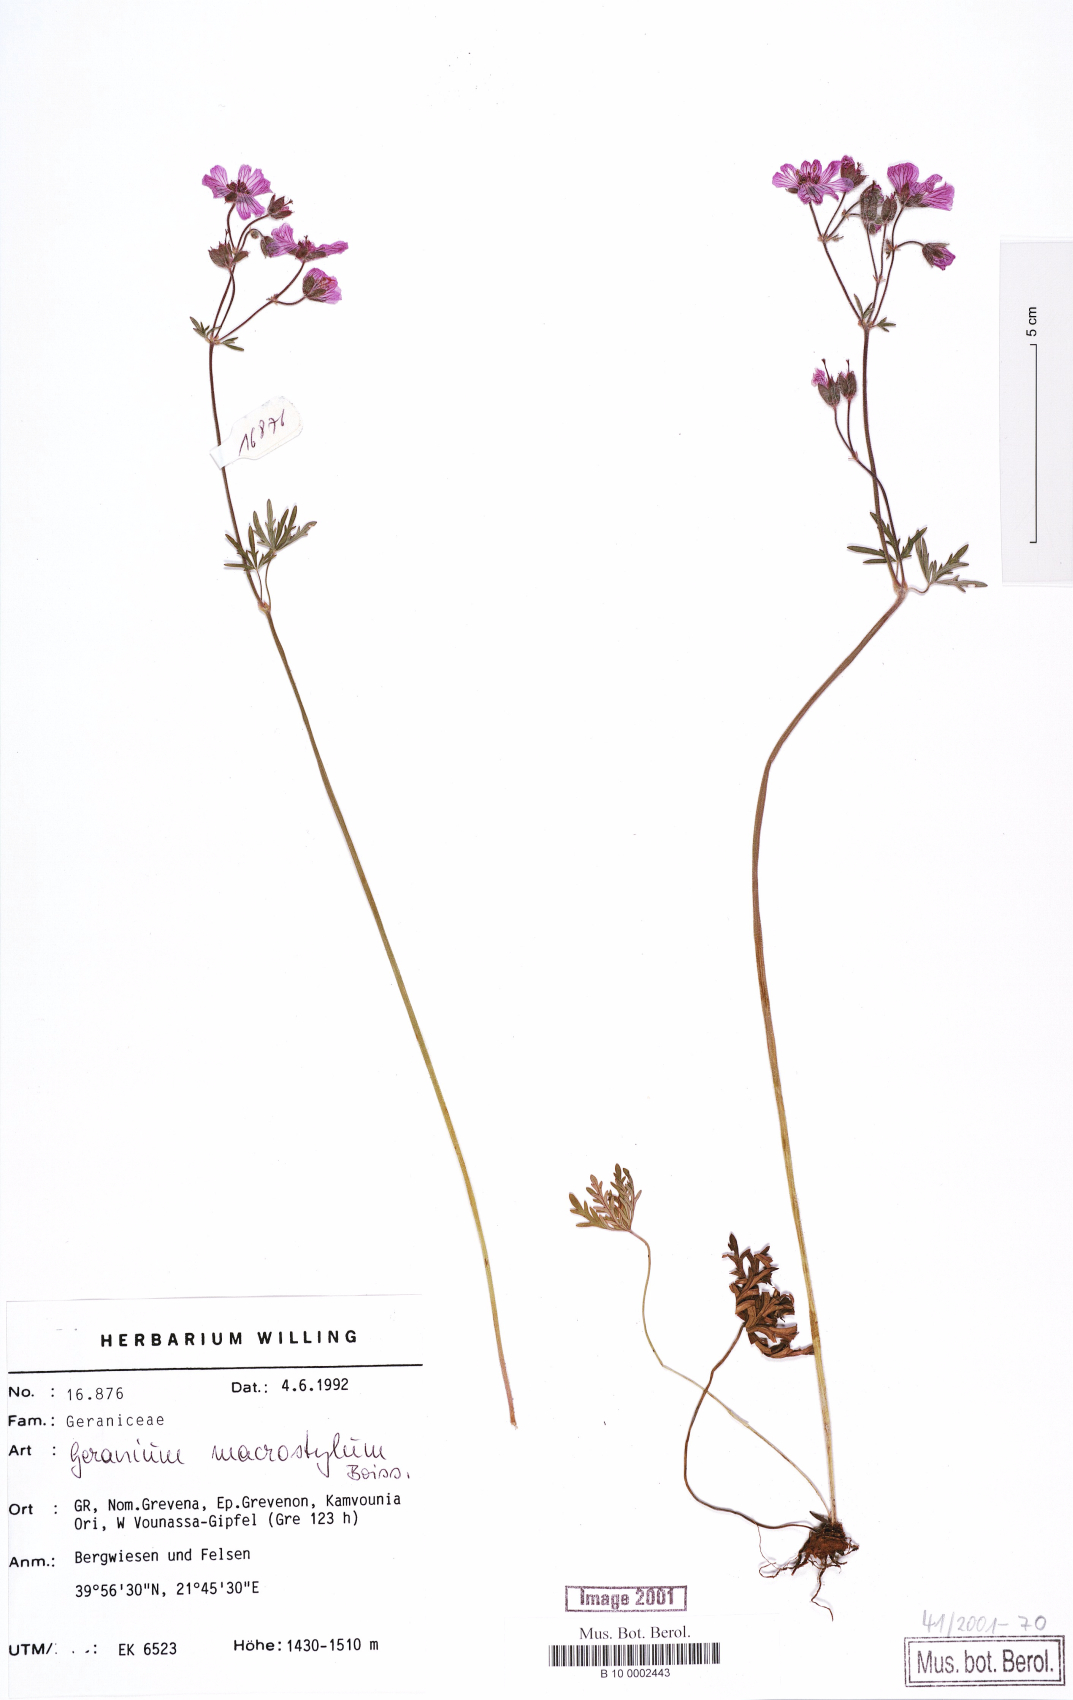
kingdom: Plantae
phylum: Tracheophyta
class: Magnoliopsida
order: Geraniales
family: Geraniaceae
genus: Geranium
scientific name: Geranium macrostylum
